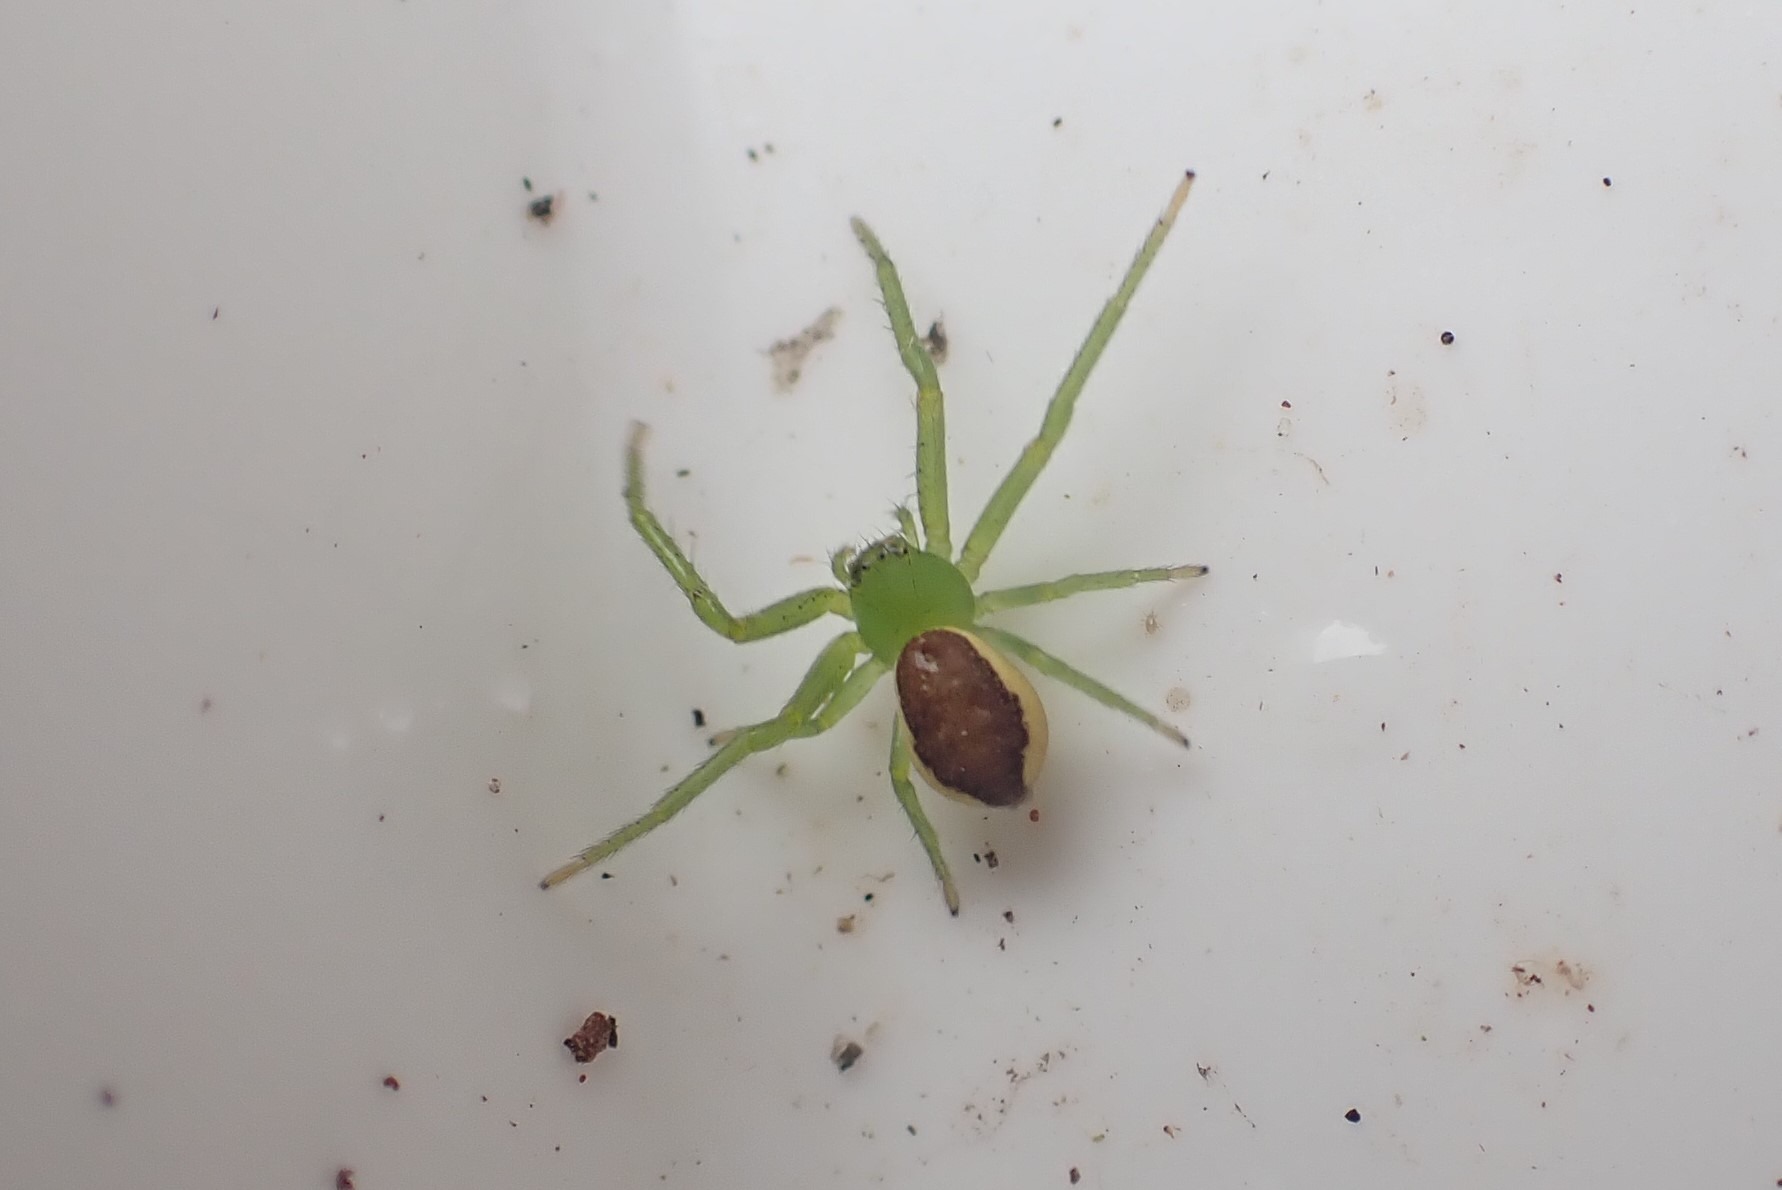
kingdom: Animalia
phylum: Arthropoda
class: Arachnida
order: Araneae
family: Thomisidae
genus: Diaea
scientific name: Diaea dorsata
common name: Grøn krabbeedderkop
